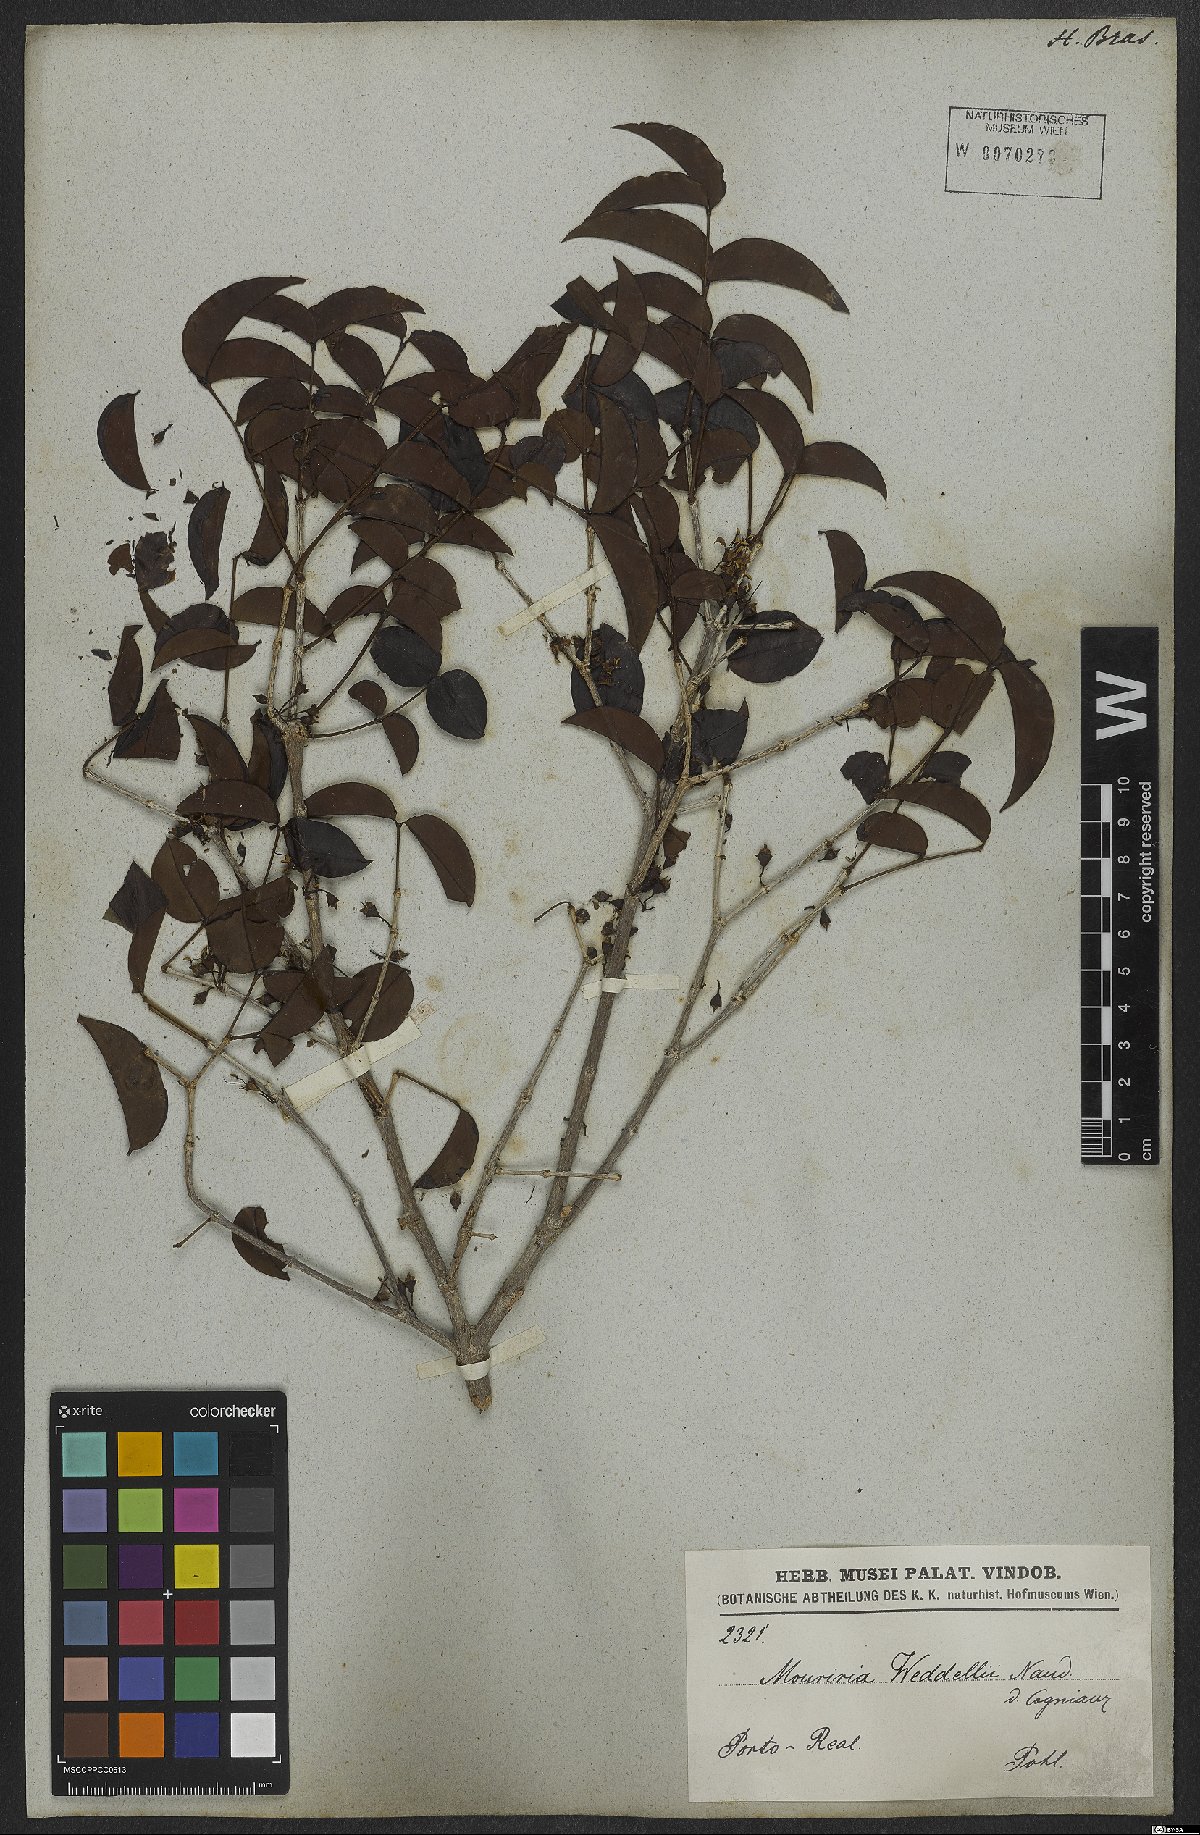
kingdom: Plantae
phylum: Tracheophyta
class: Magnoliopsida
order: Myrtales
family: Melastomataceae
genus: Mouriri
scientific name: Mouriri guianensis
